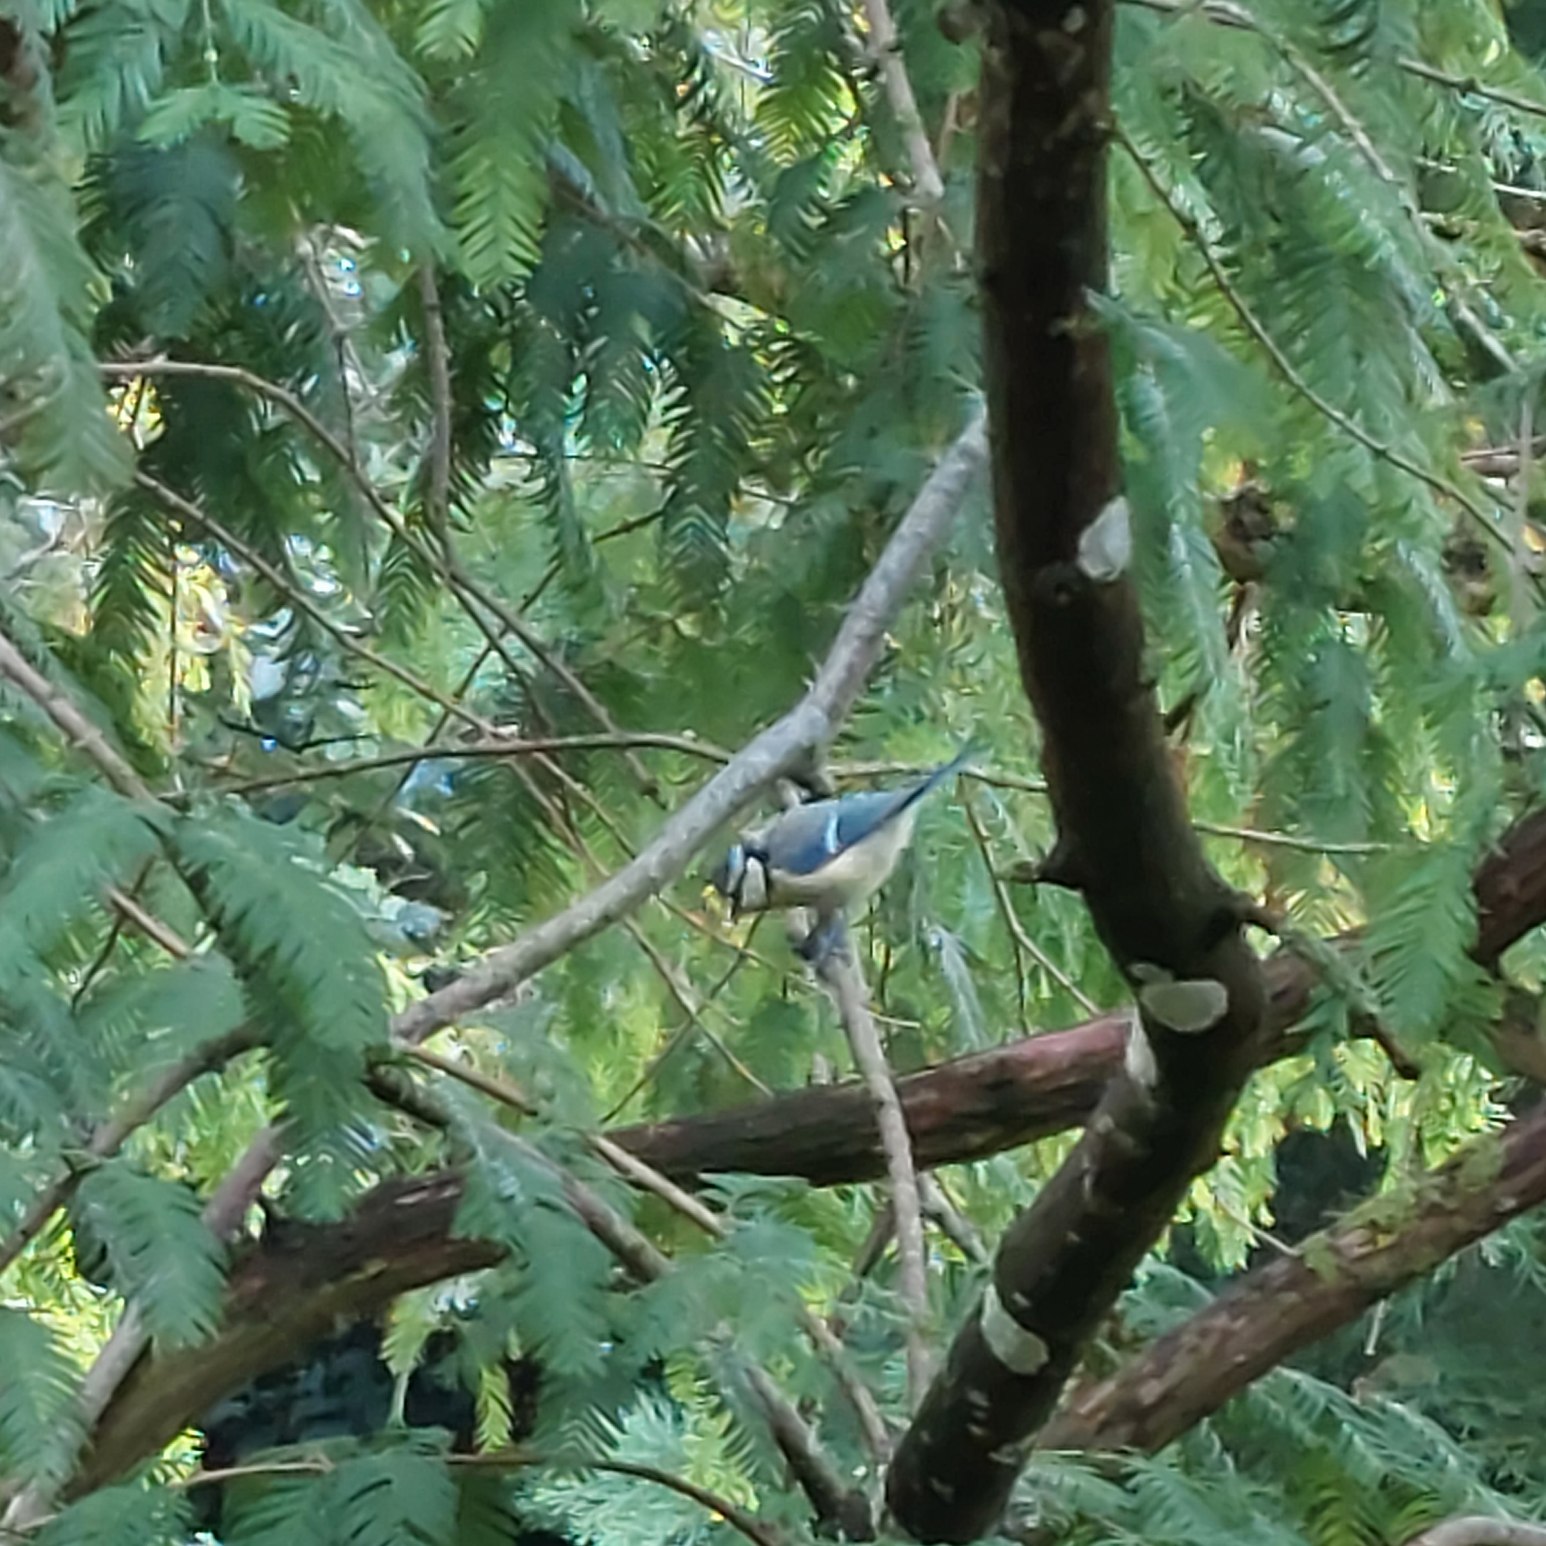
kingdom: Animalia
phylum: Chordata
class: Aves
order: Passeriformes
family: Paridae
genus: Cyanistes
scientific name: Cyanistes caeruleus
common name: Blåmejse
